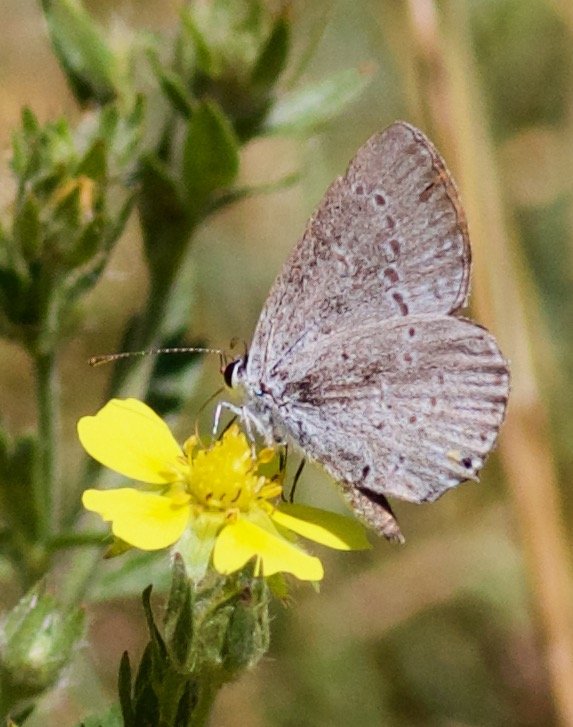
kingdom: Animalia
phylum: Arthropoda
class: Insecta
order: Lepidoptera
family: Lycaenidae
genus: Elkalyce
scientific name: Elkalyce comyntas
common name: Eastern Tailed-Blue
